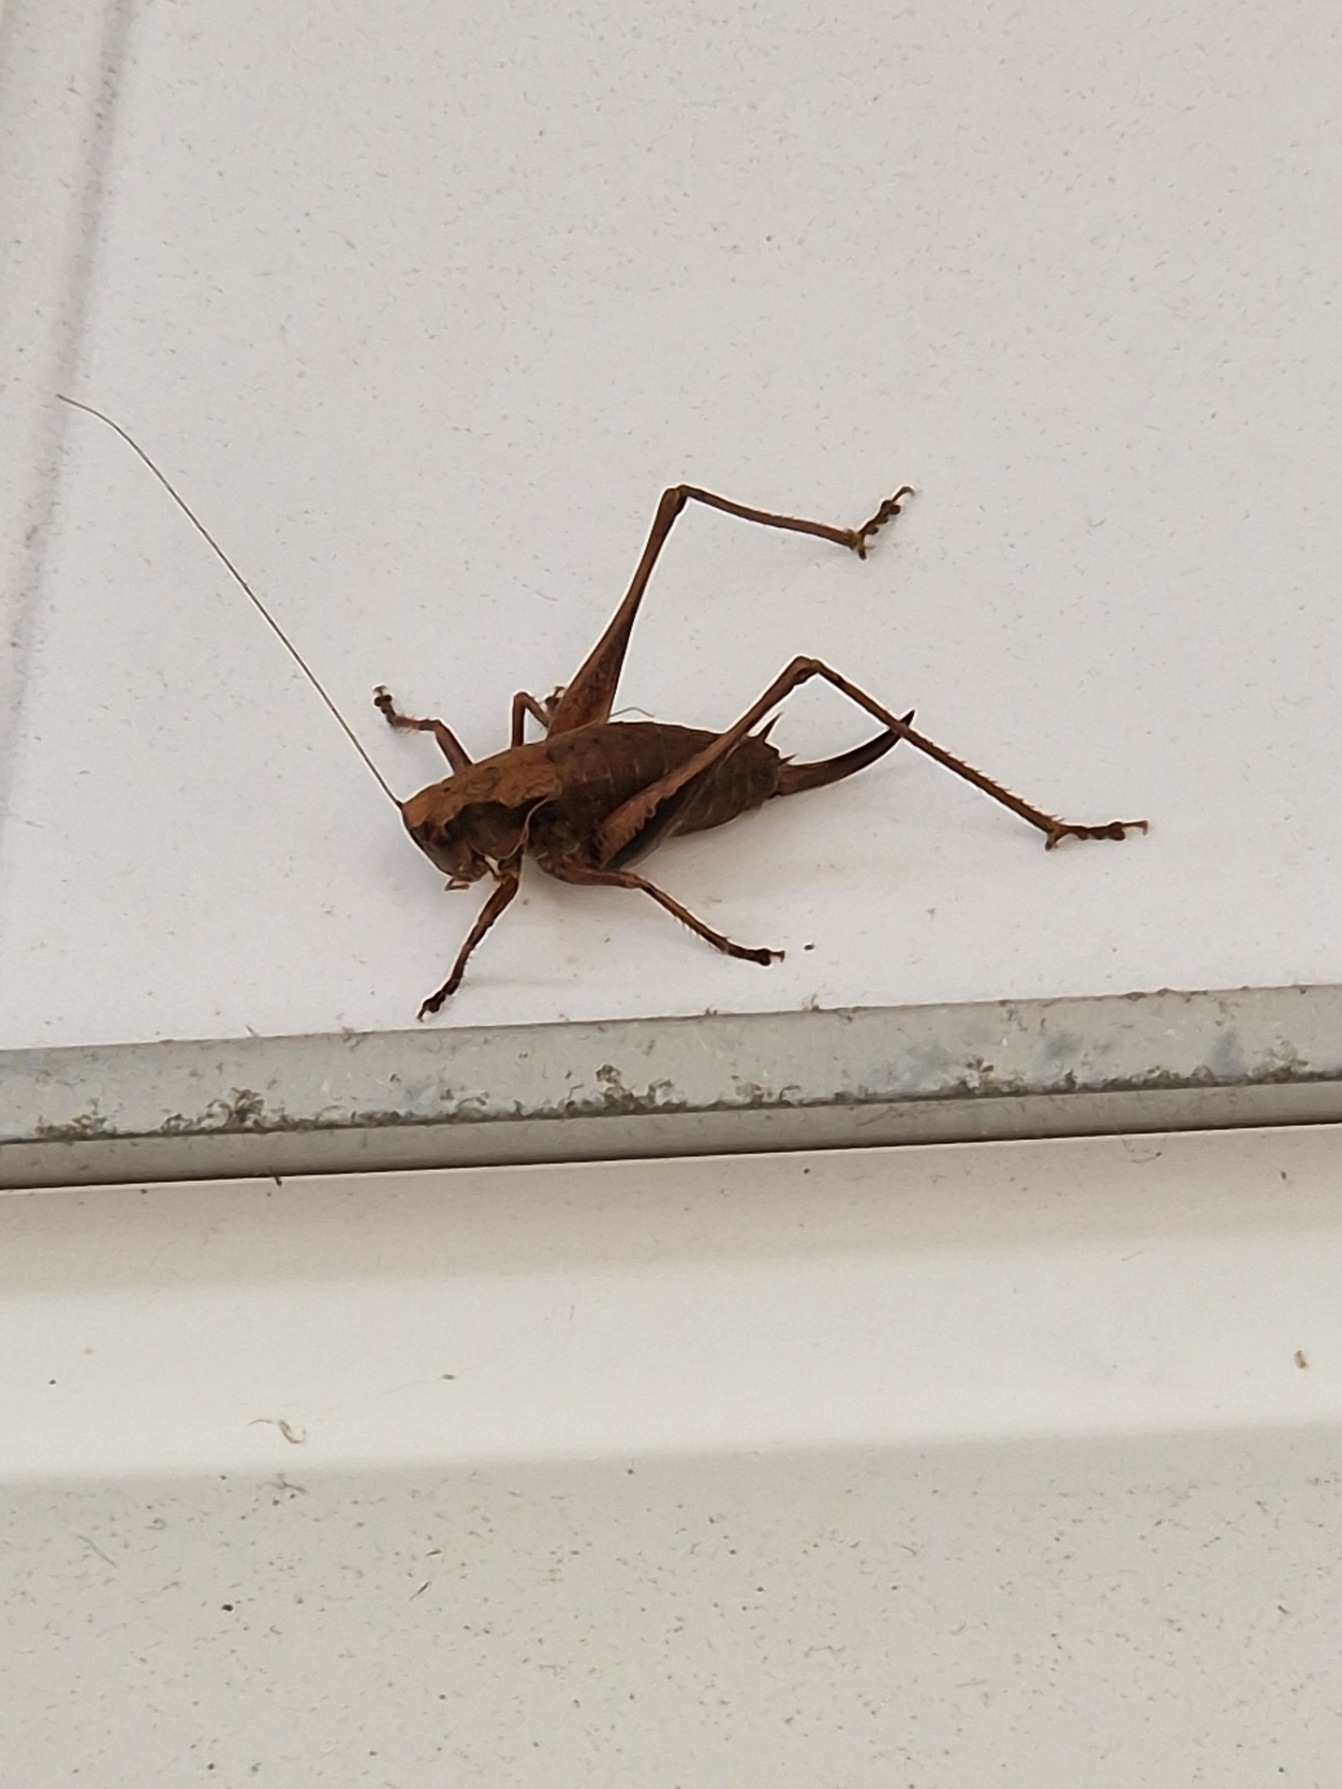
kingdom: Animalia
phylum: Arthropoda
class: Insecta
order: Orthoptera
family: Tettigoniidae
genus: Pholidoptera
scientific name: Pholidoptera griseoaptera
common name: Buskgræshoppe
